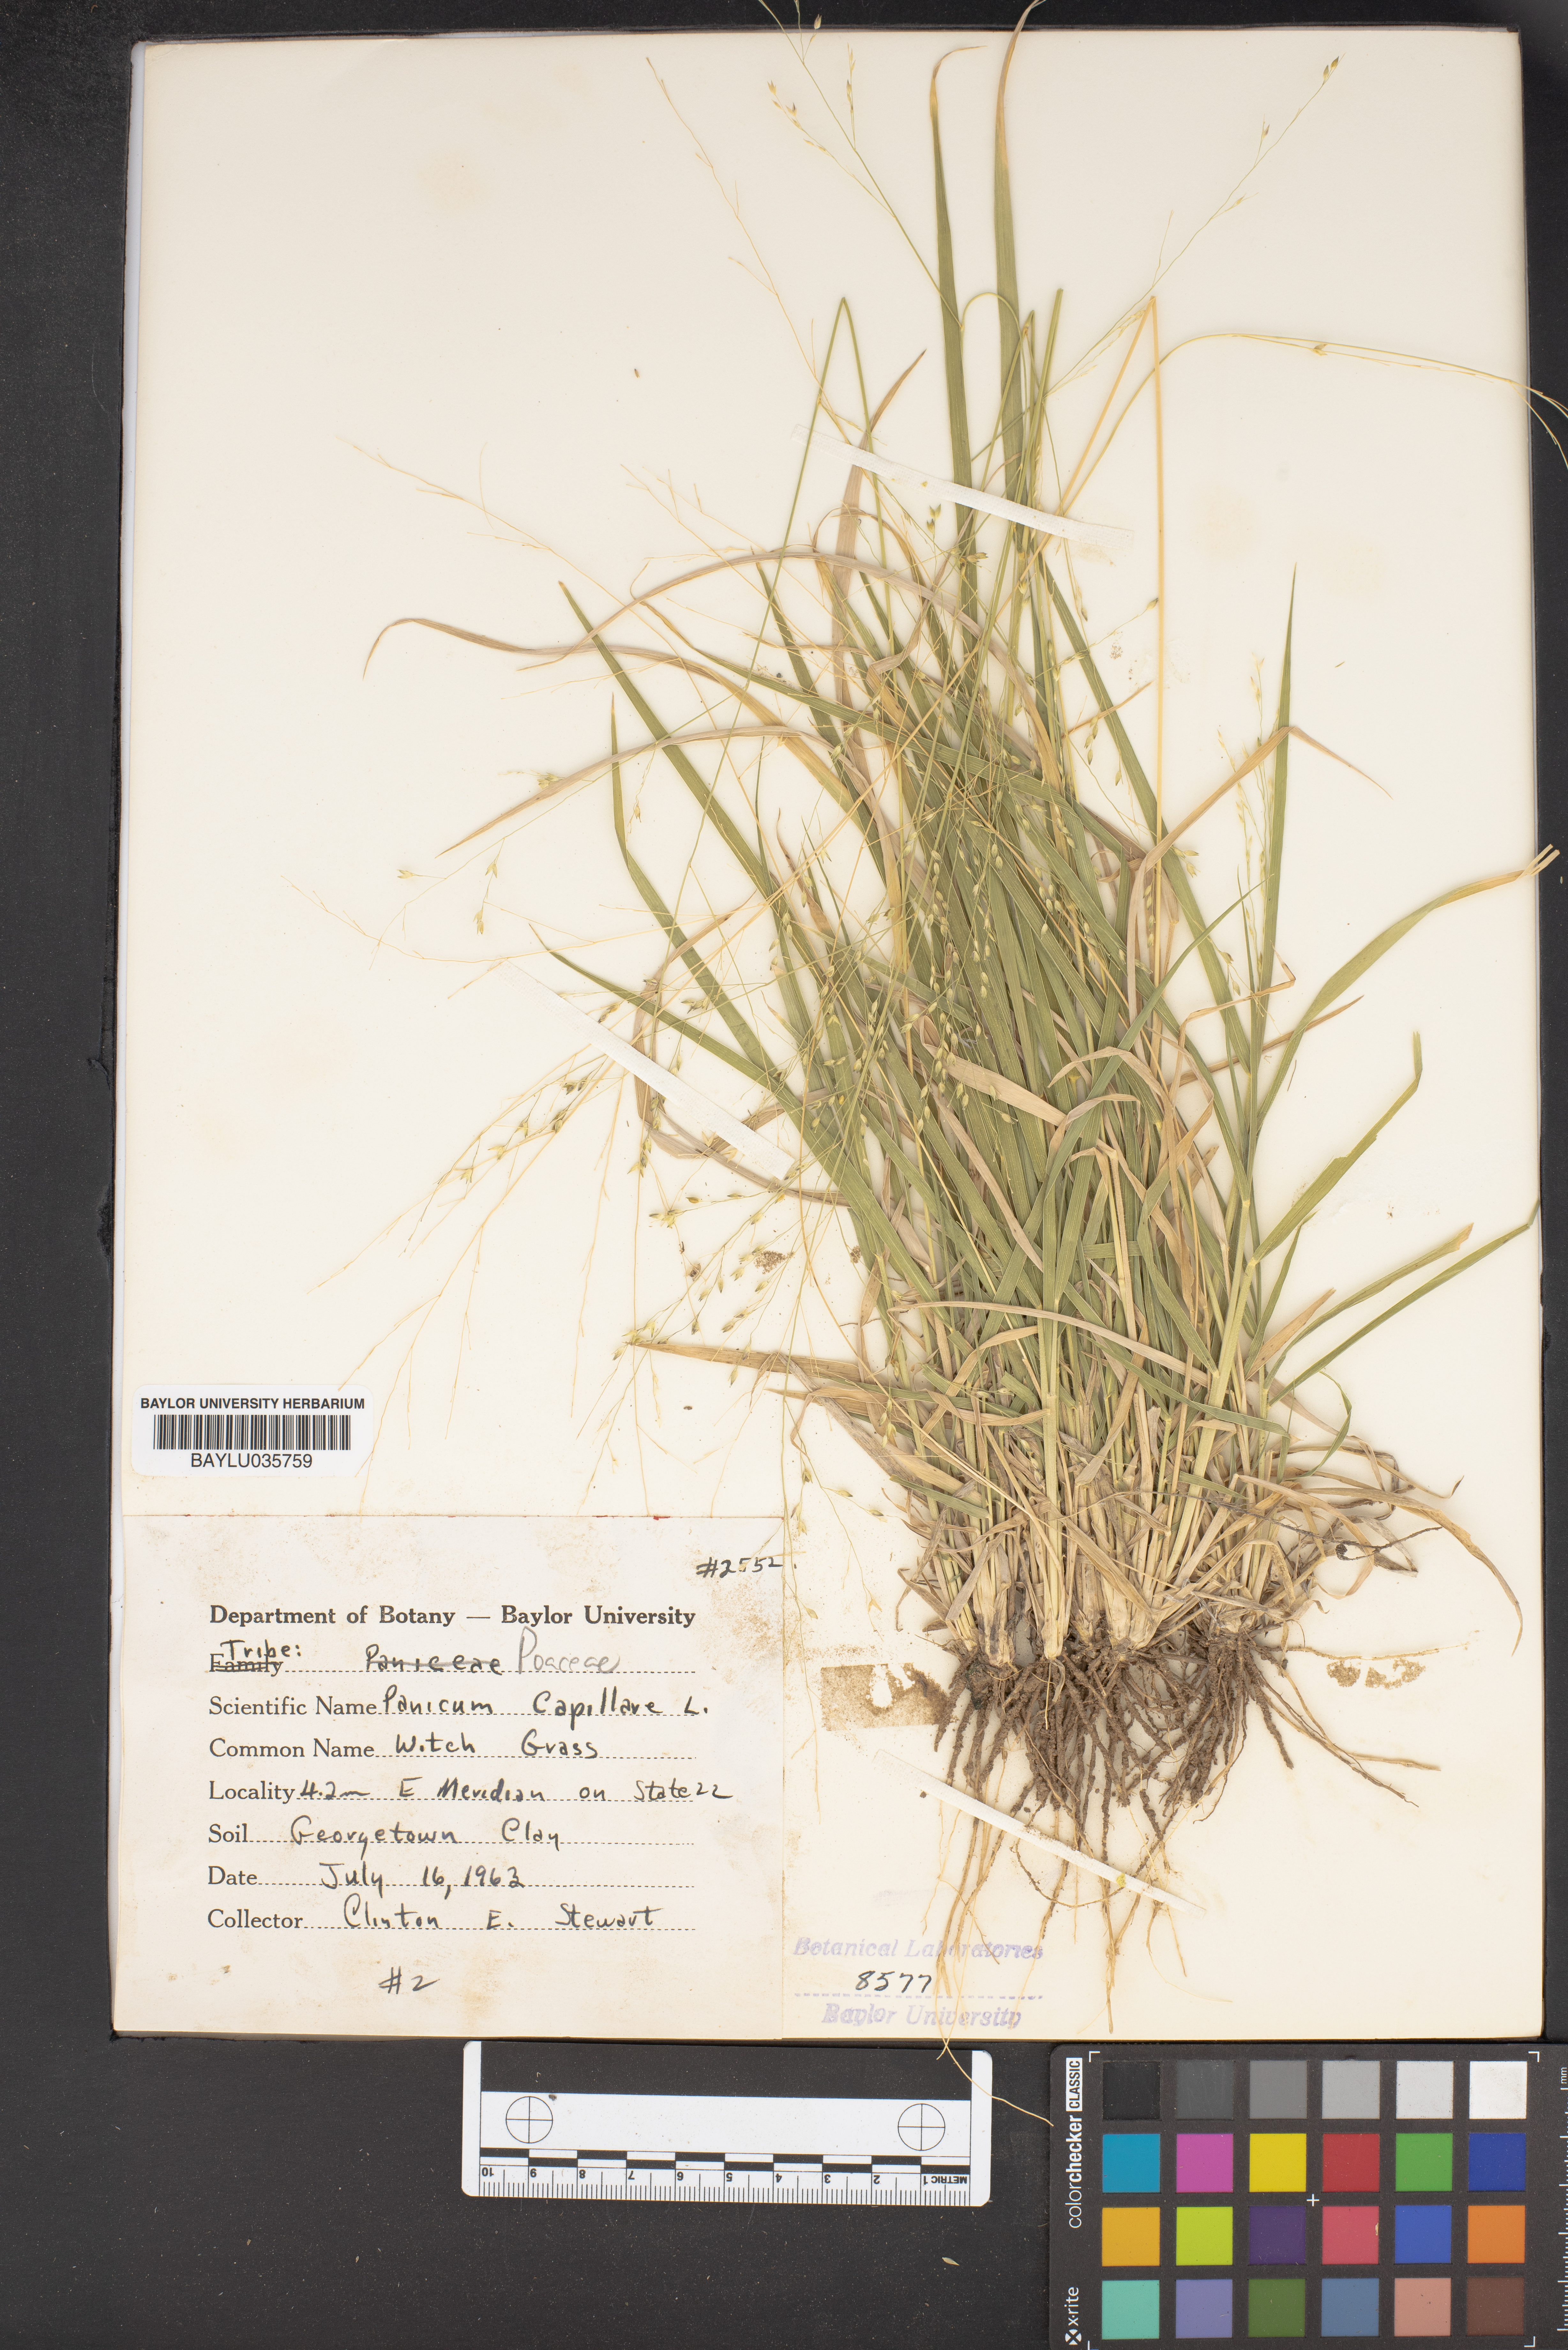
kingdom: Plantae
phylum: Tracheophyta
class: Liliopsida
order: Poales
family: Poaceae
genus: Panicum
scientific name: Panicum capillare
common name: Witch-grass
